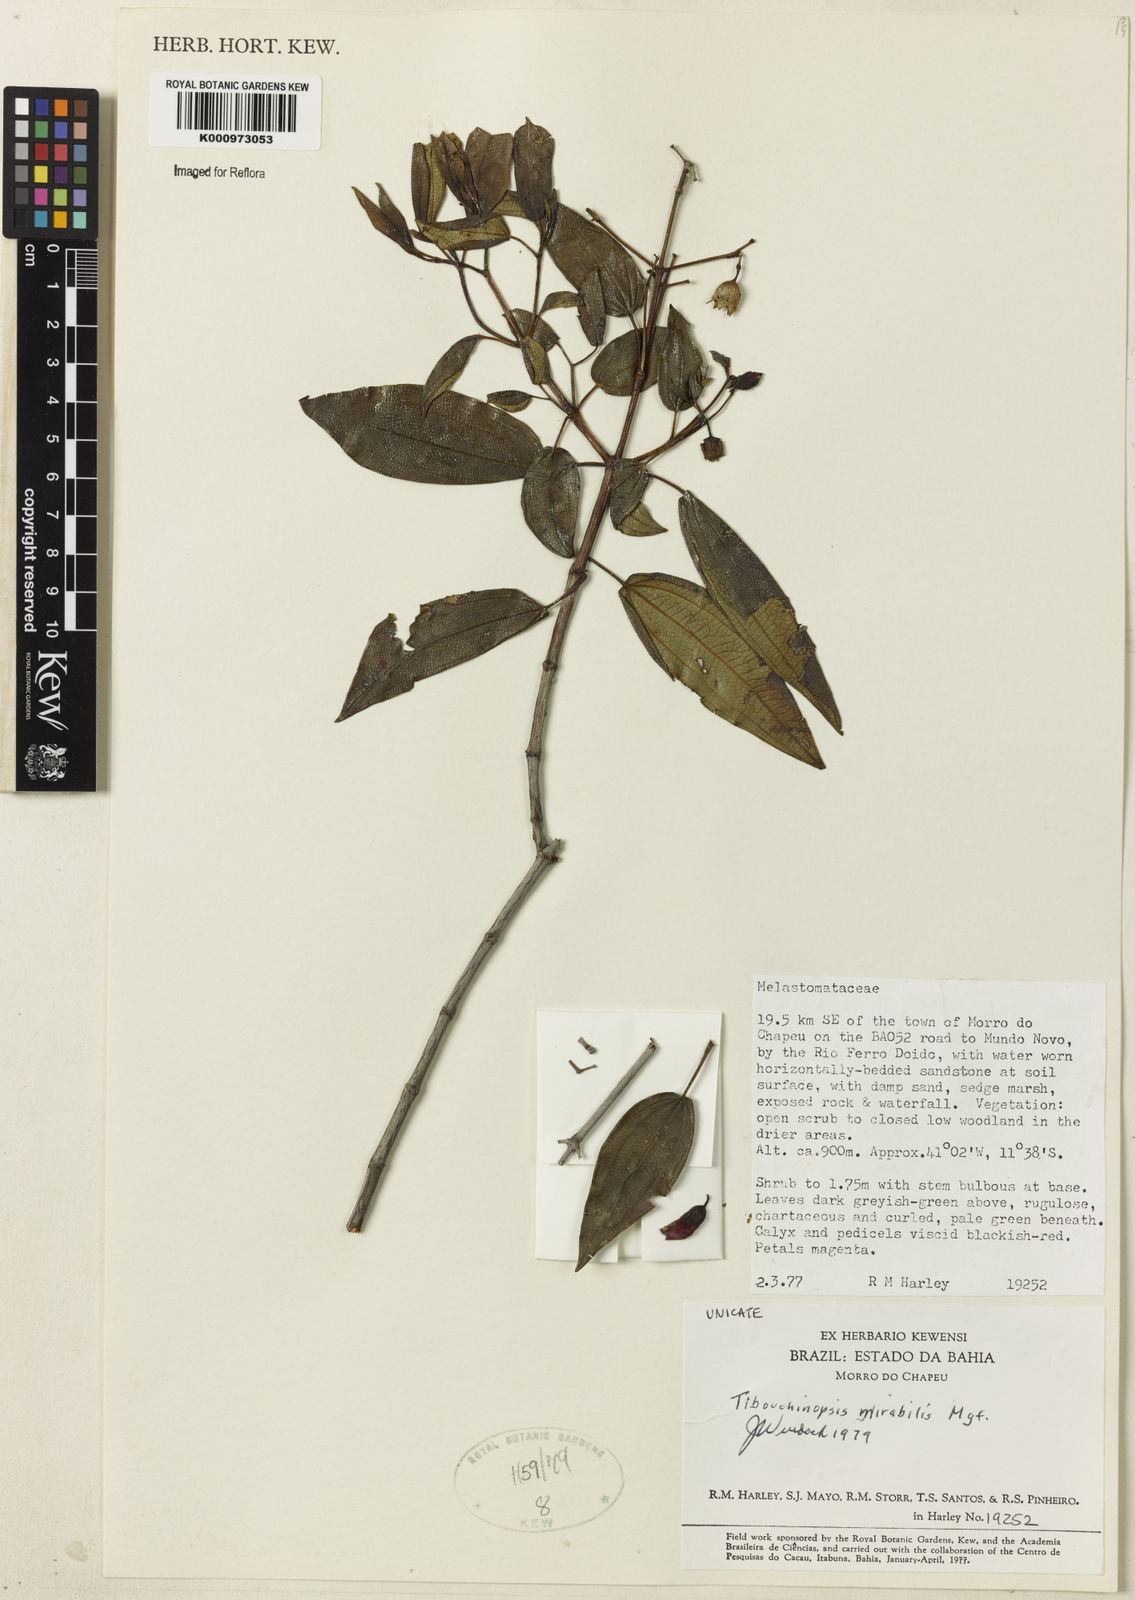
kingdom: Plantae
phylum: Tracheophyta
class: Magnoliopsida
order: Myrtales
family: Melastomataceae
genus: Pleroma
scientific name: Pleroma mirabile
